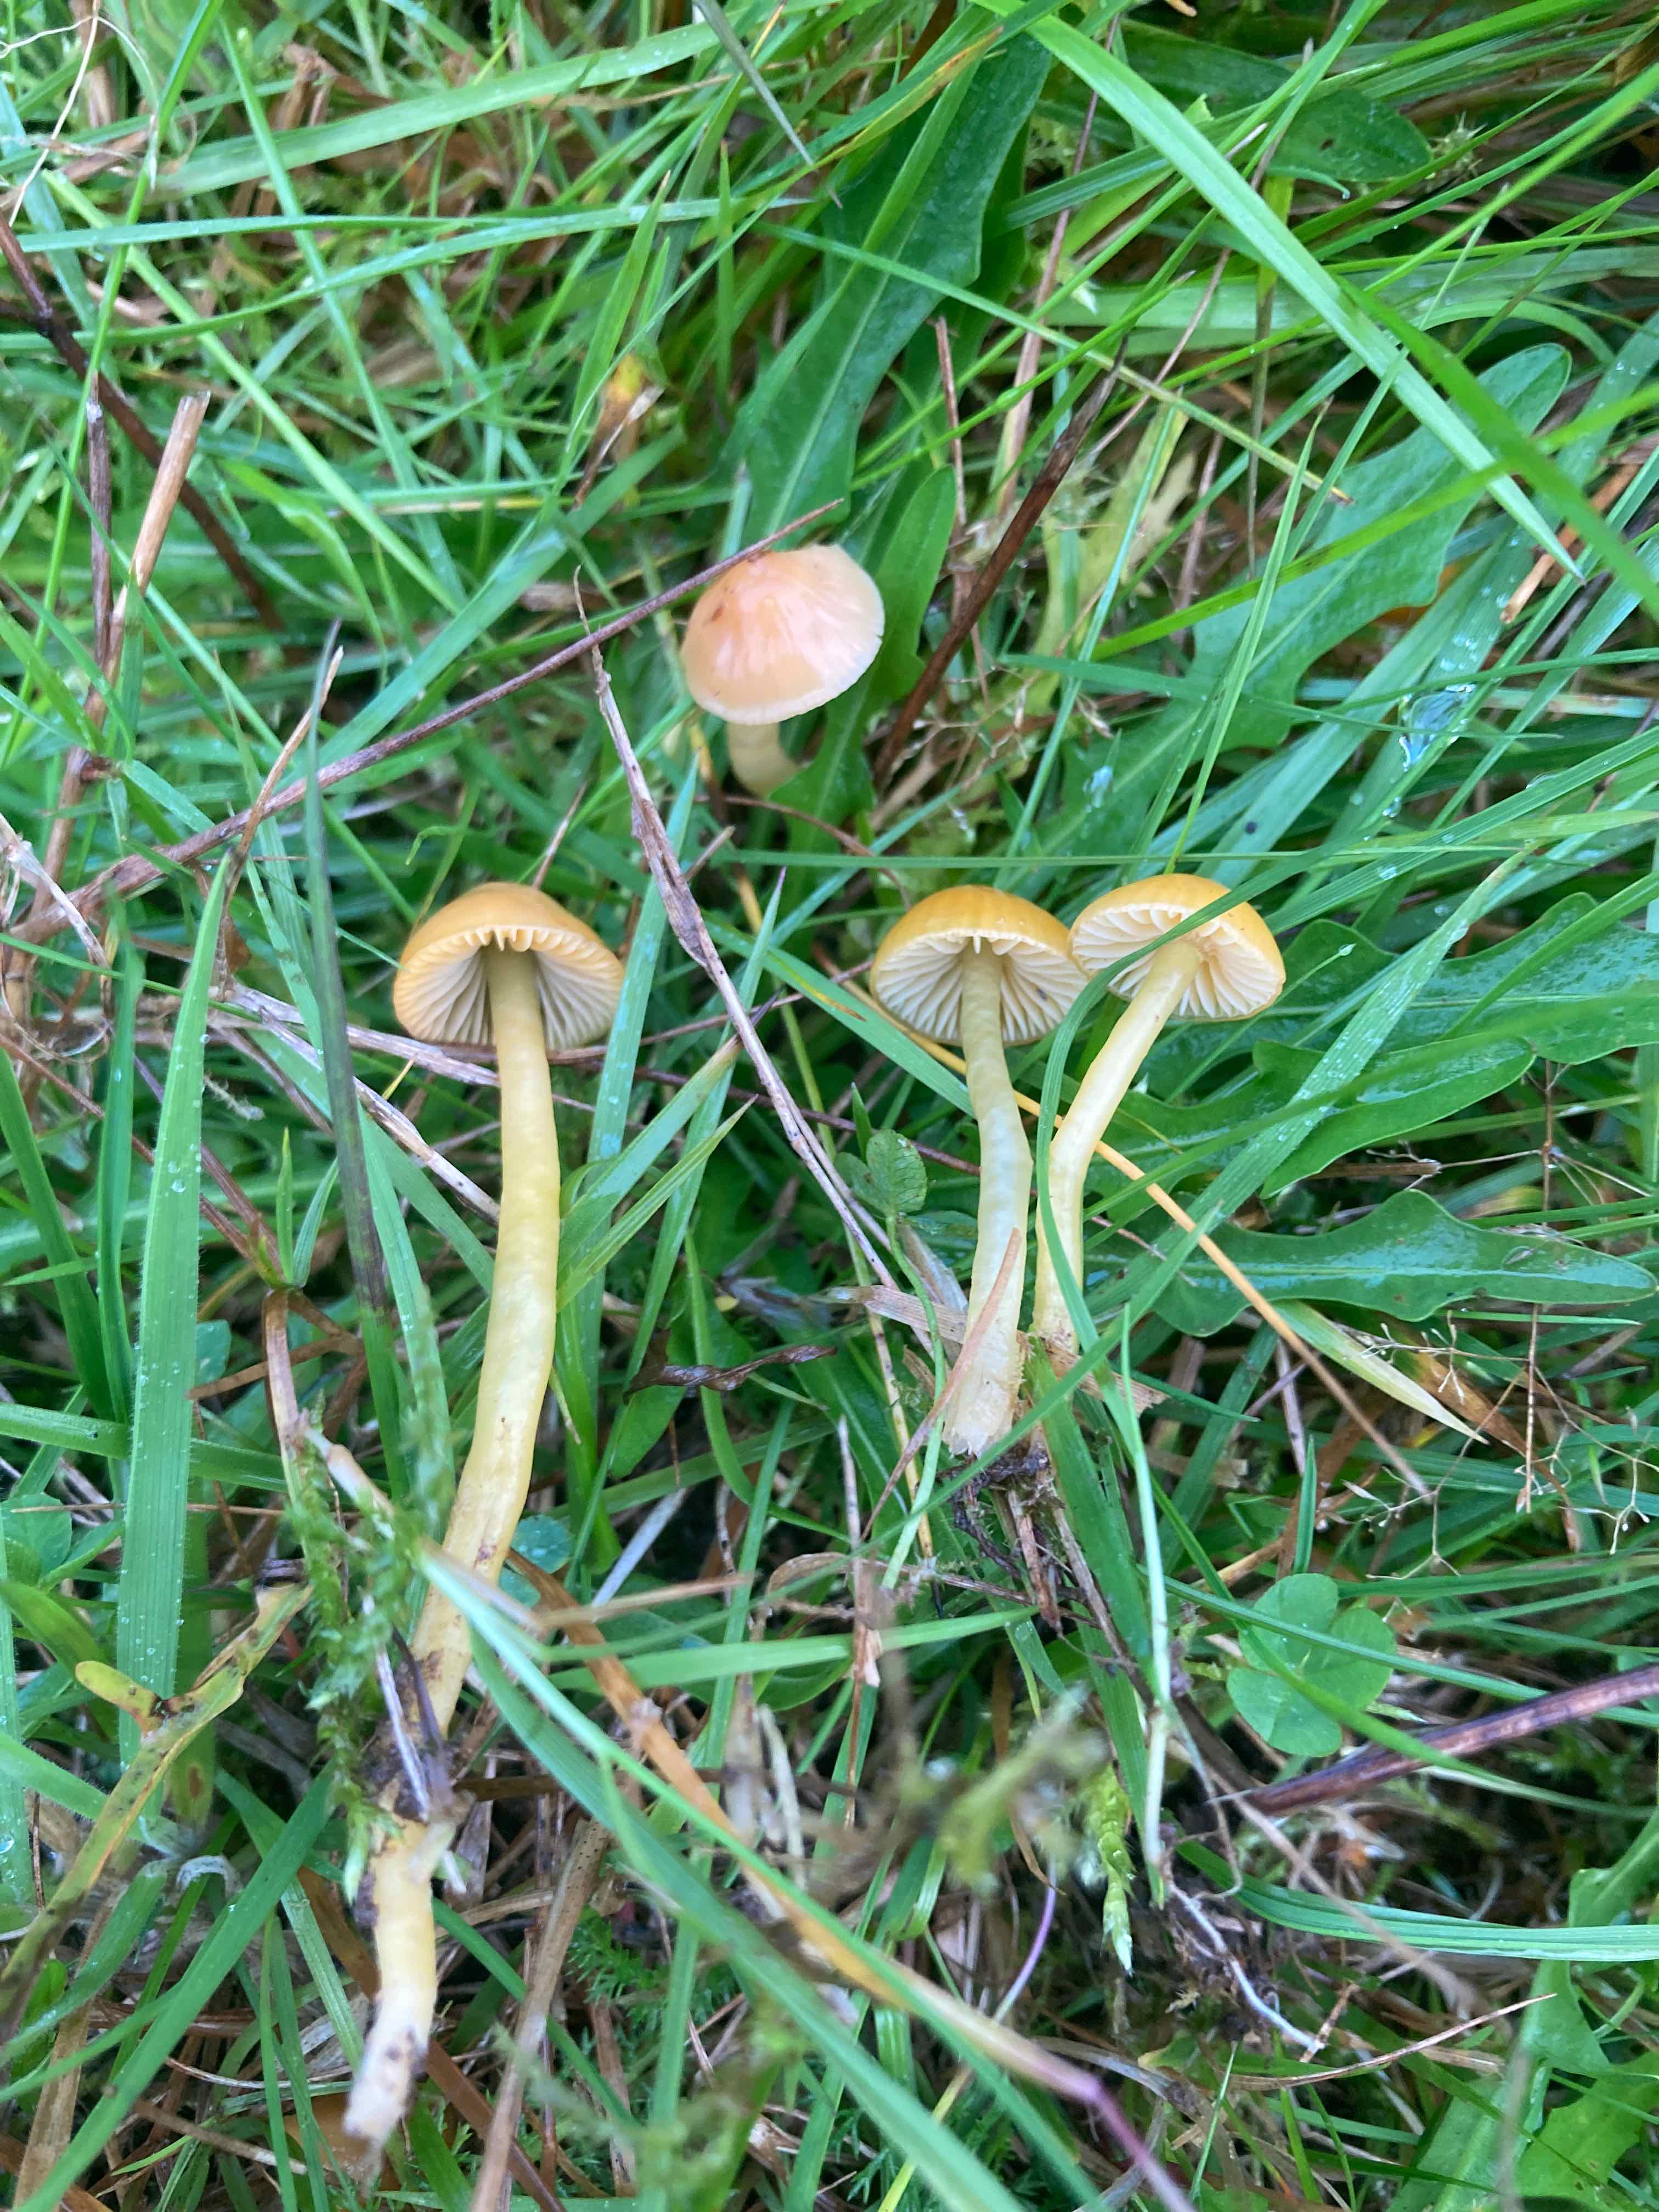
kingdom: Fungi
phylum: Basidiomycota
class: Agaricomycetes
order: Agaricales
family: Hygrophoraceae
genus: Gliophorus
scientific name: Gliophorus psittacinus
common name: papegøje-vokshat
